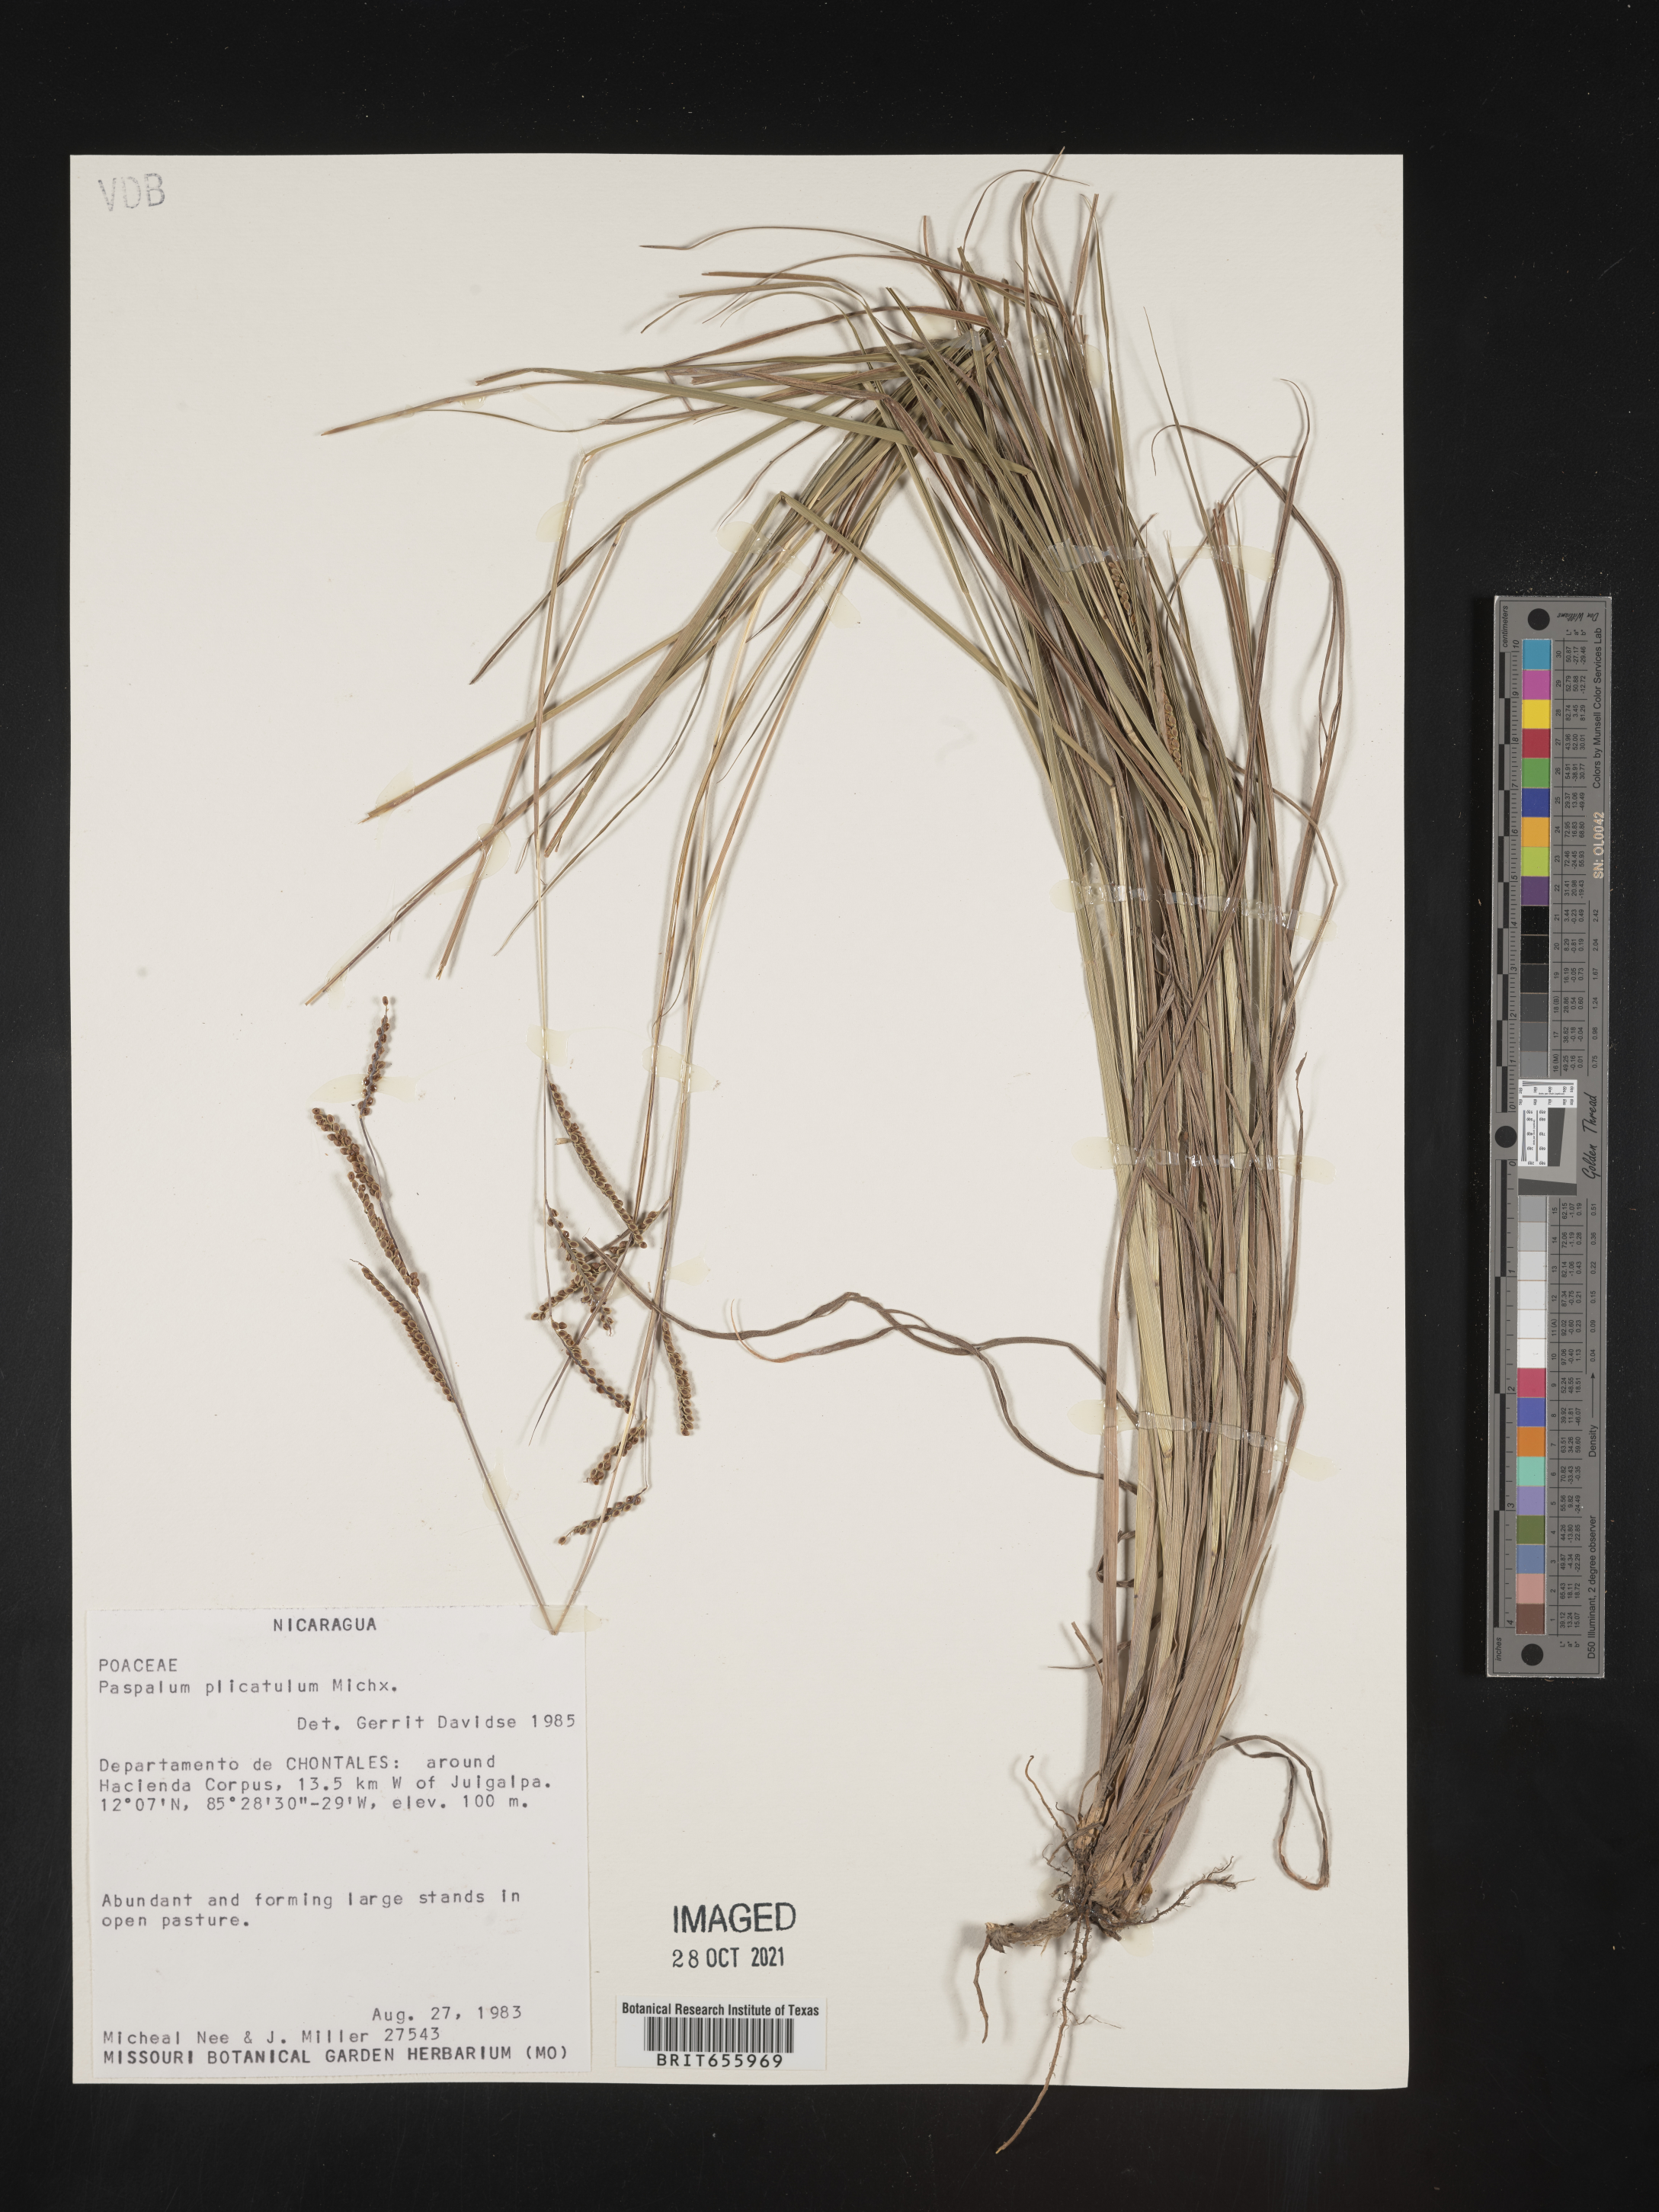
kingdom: Plantae
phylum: Tracheophyta
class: Liliopsida
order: Poales
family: Poaceae
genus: Paspalum
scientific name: Paspalum
